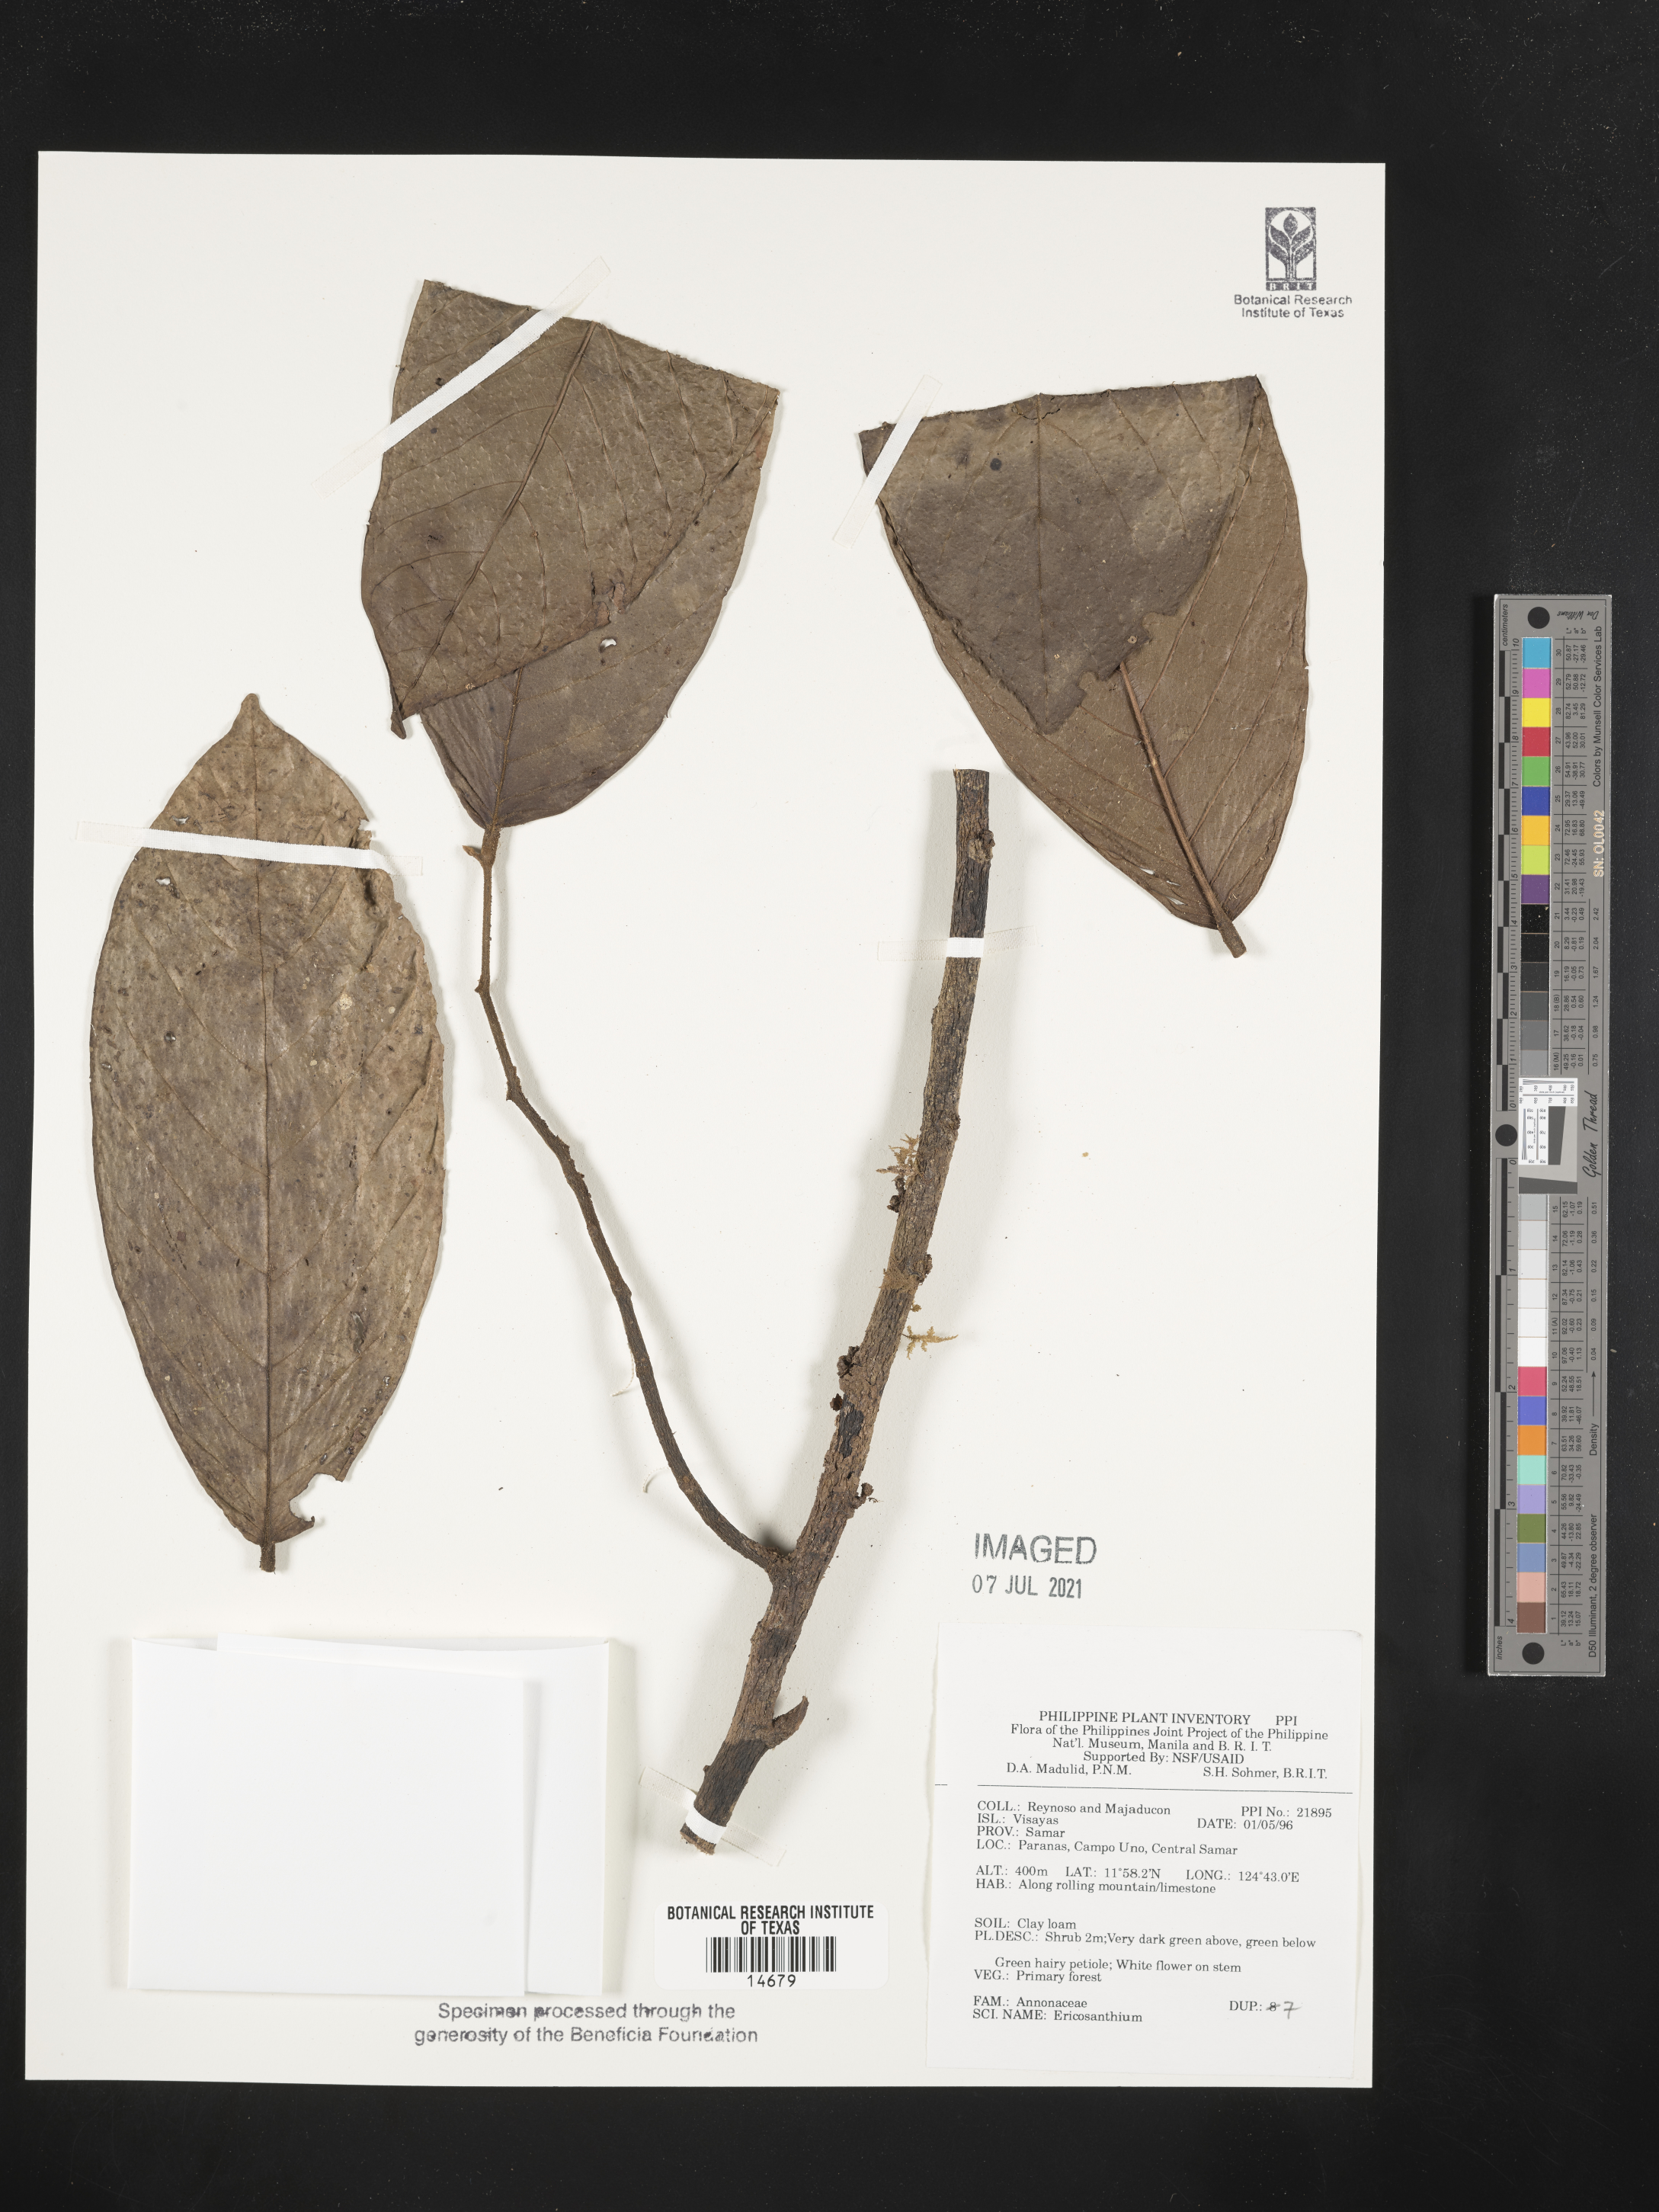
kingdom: Plantae
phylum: Tracheophyta
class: Magnoliopsida
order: Magnoliales
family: Annonaceae
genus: Enicosanthum
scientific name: Enicosanthum
